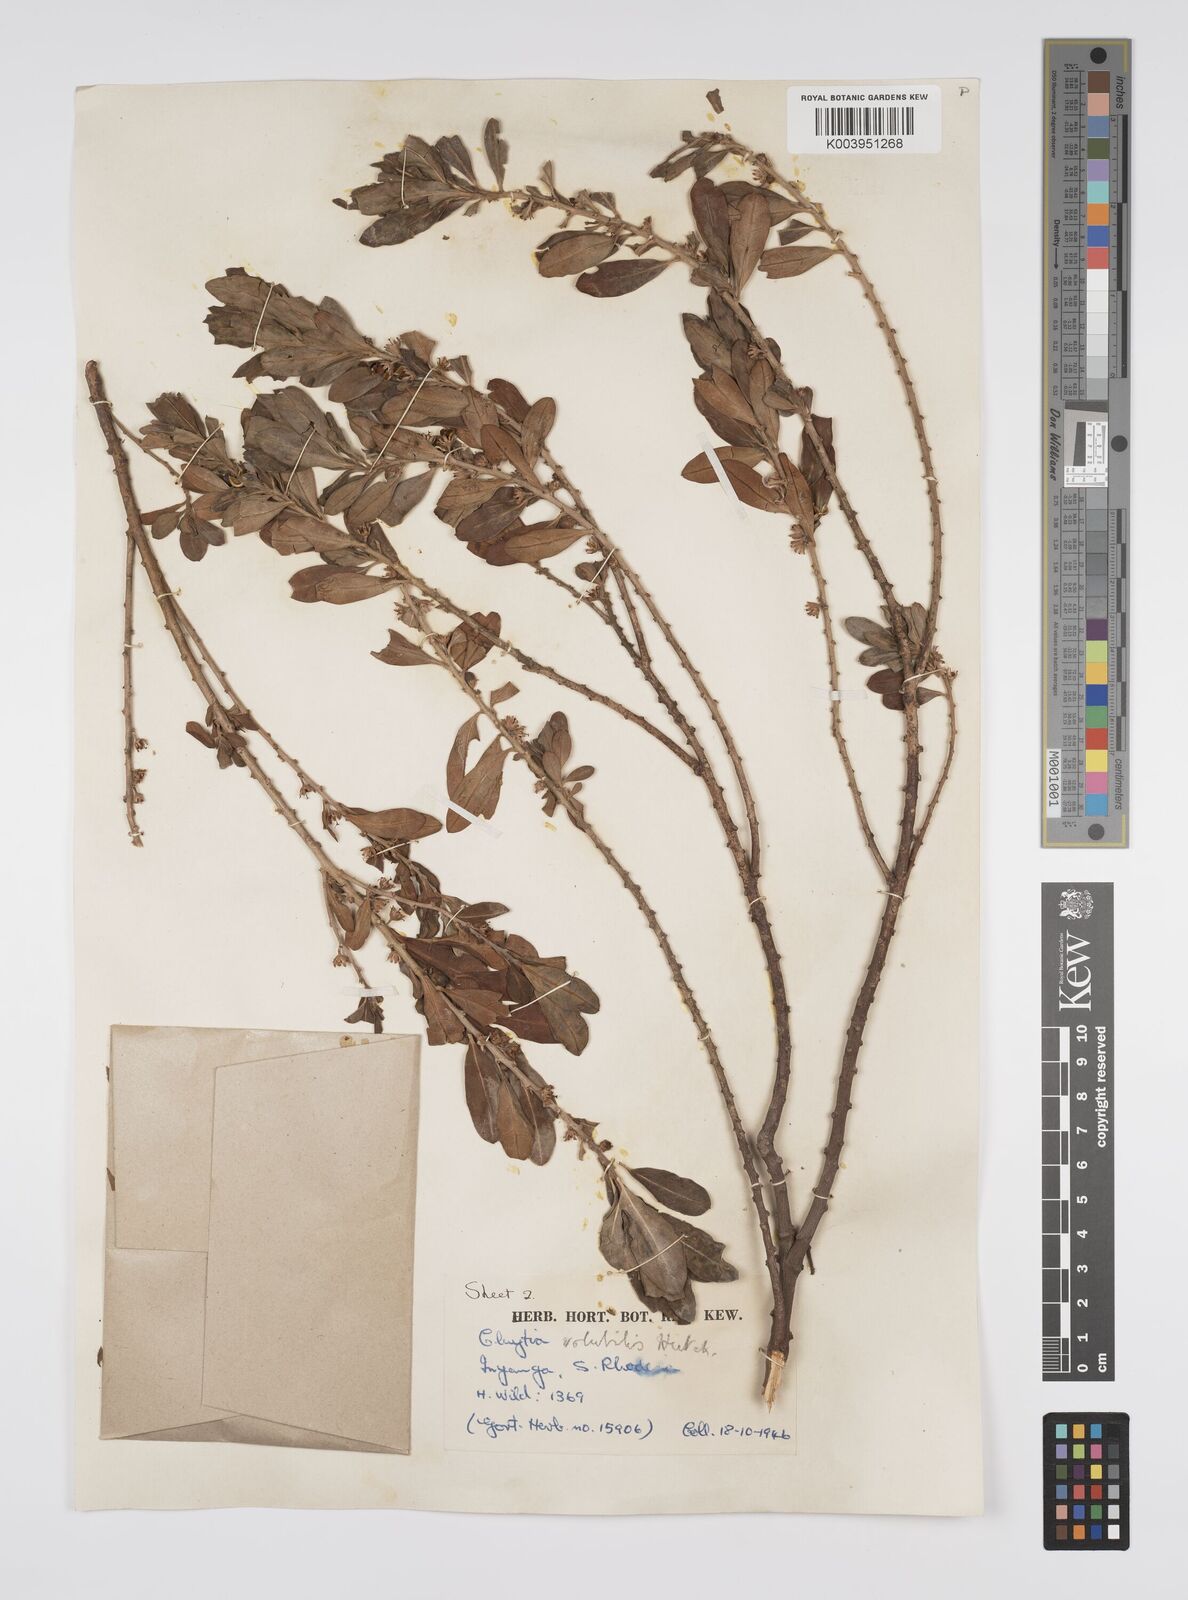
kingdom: Plantae
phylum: Tracheophyta
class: Magnoliopsida
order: Malpighiales
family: Peraceae
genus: Clutia
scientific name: Clutia
